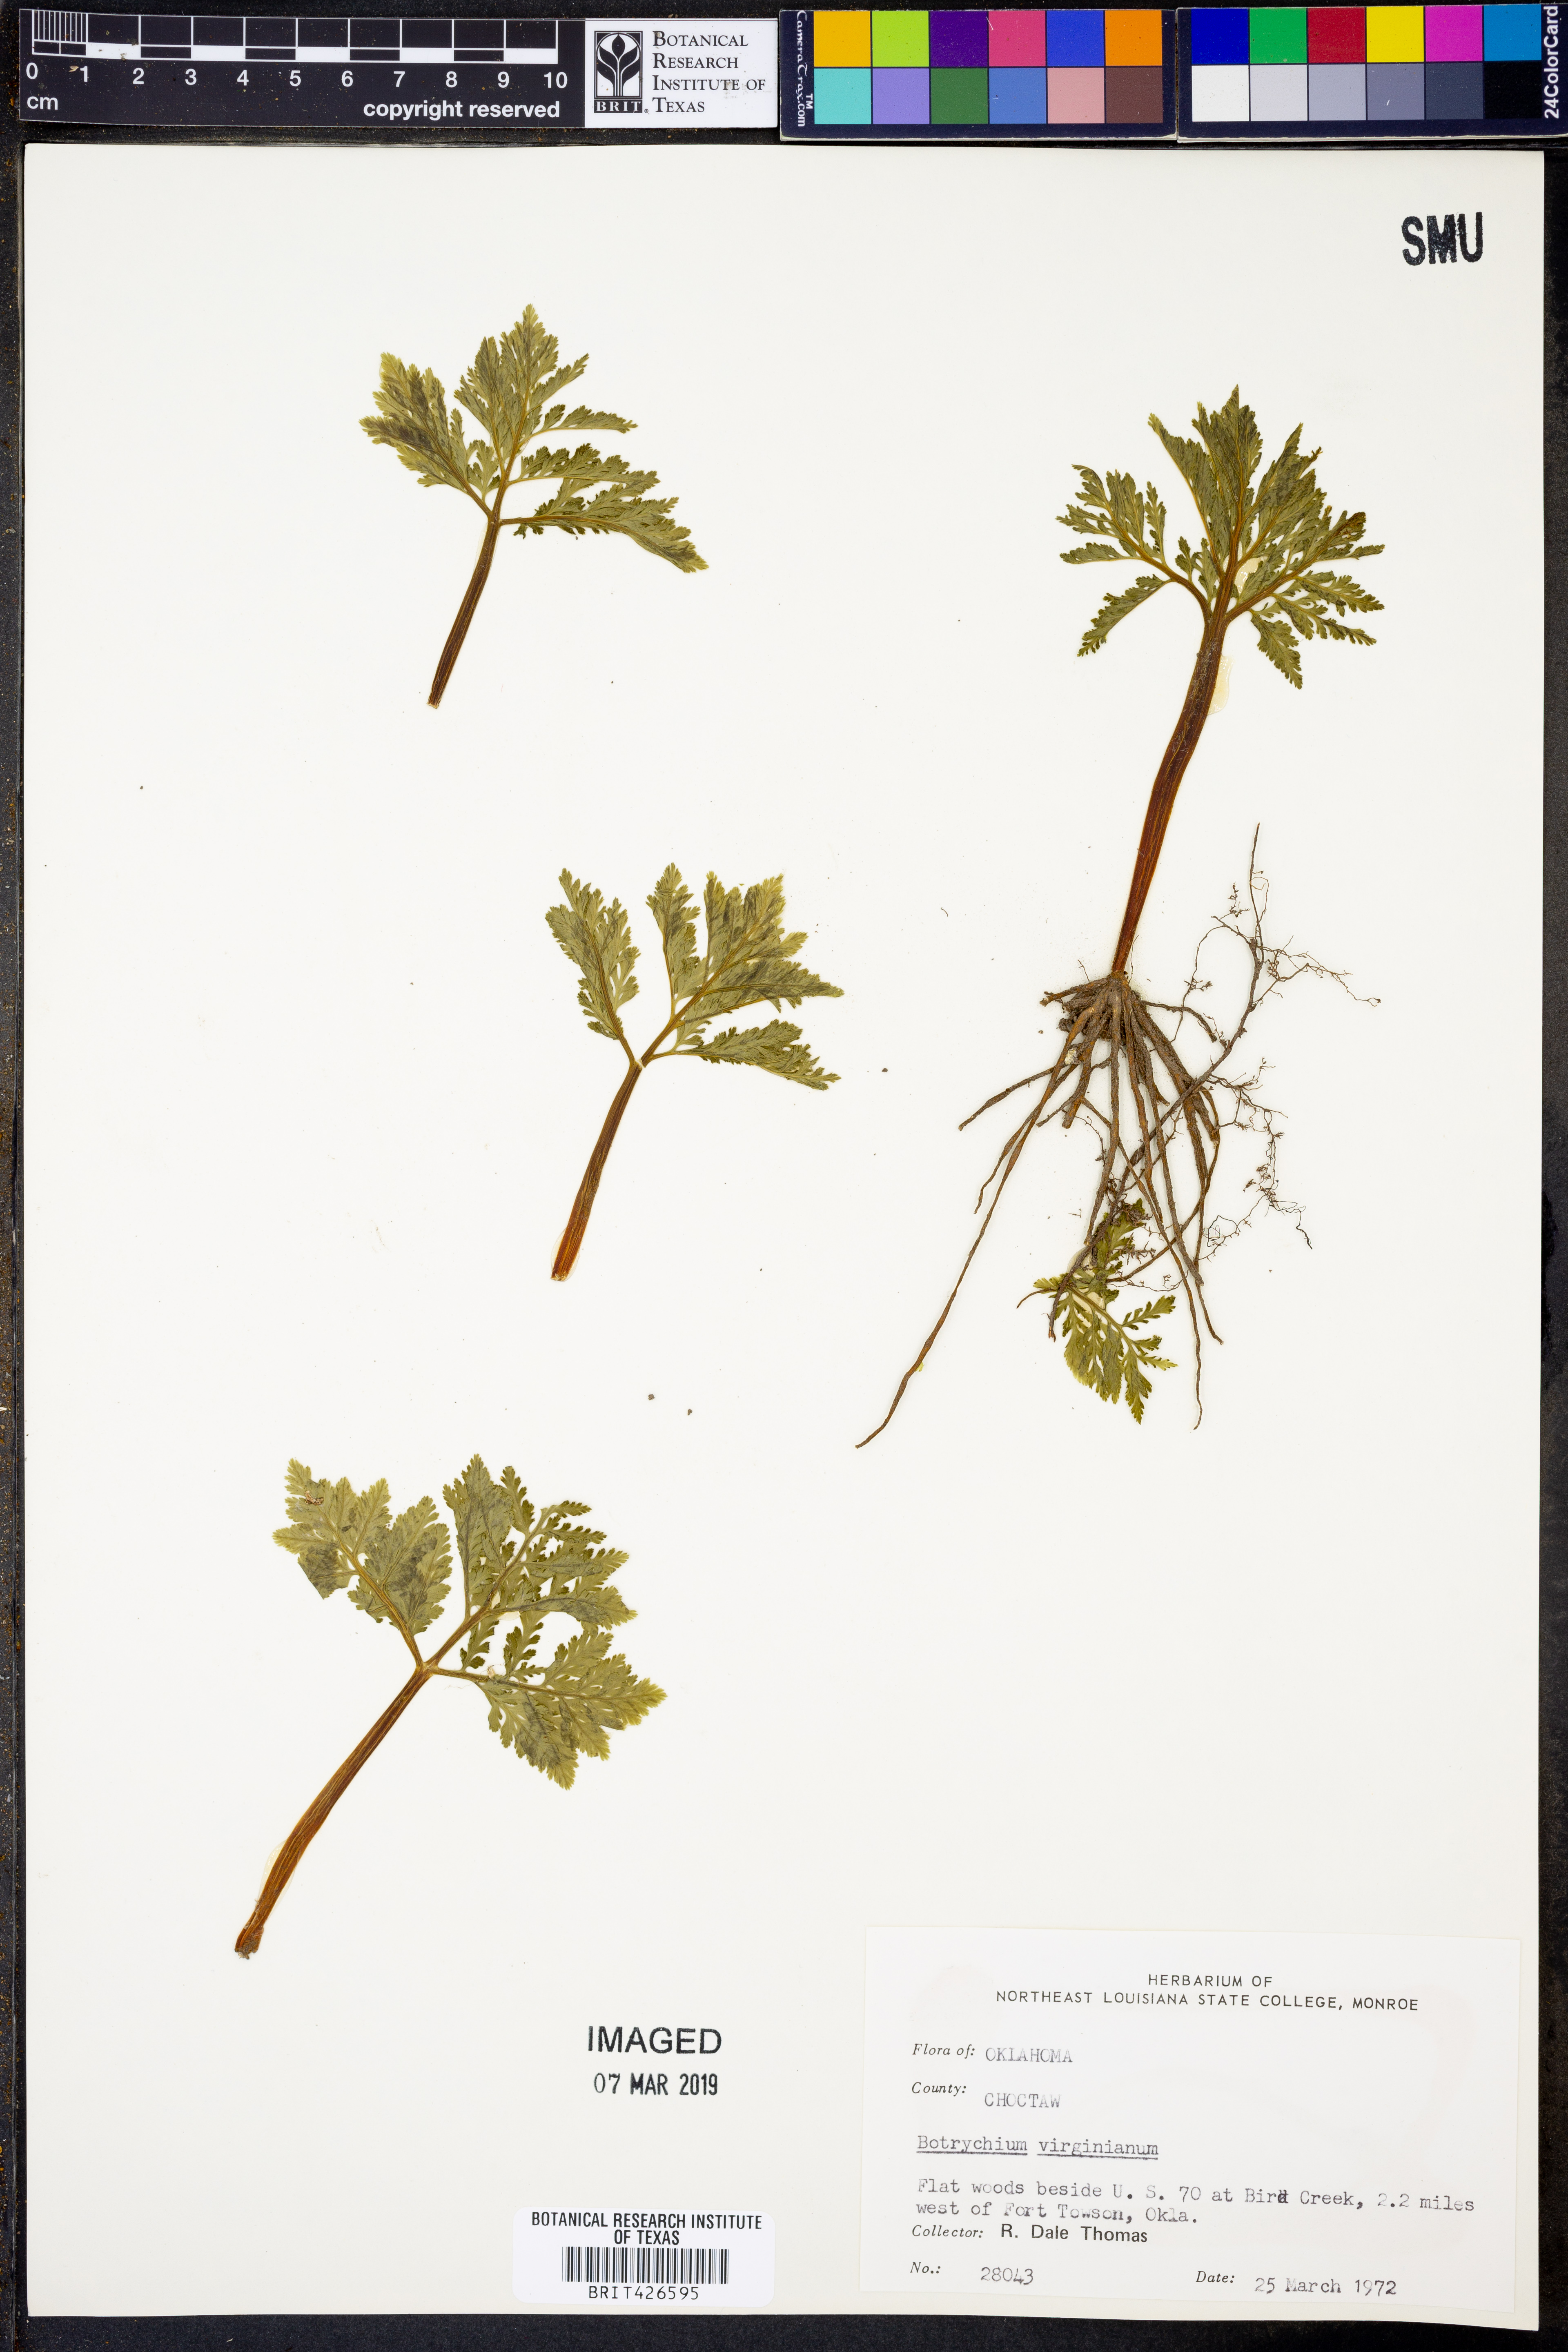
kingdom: Plantae
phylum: Tracheophyta
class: Polypodiopsida
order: Ophioglossales
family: Ophioglossaceae
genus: Botrypus
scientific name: Botrypus virginianus
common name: Common grapefern
